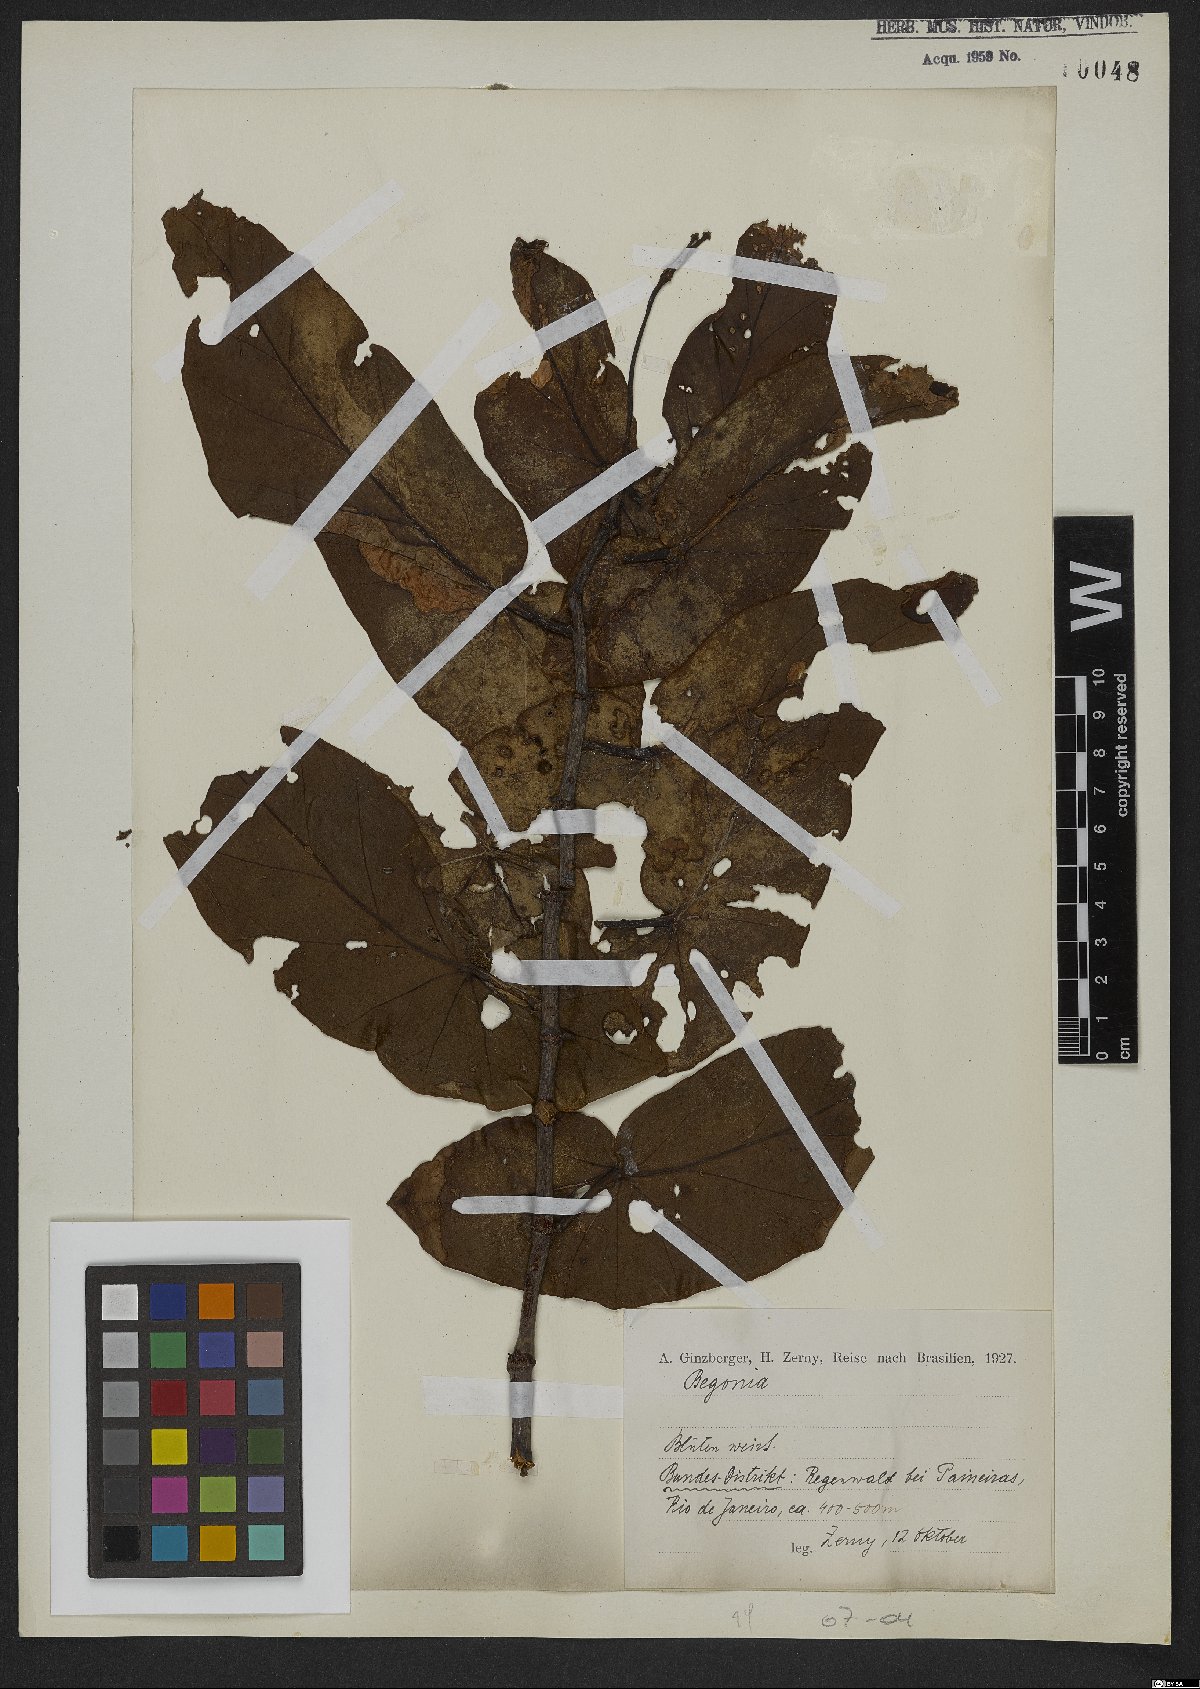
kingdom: Plantae
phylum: Tracheophyta
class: Magnoliopsida
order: Cucurbitales
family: Begoniaceae
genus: Begonia
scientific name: Begonia
